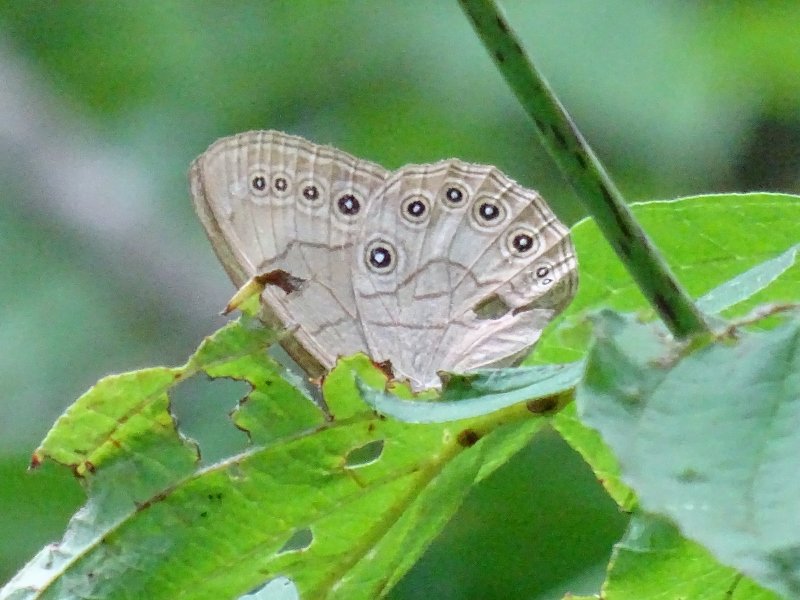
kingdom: Animalia
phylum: Arthropoda
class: Insecta
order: Lepidoptera
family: Nymphalidae
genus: Lethe
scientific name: Lethe eurydice
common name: Appalachian Eyed Brown
